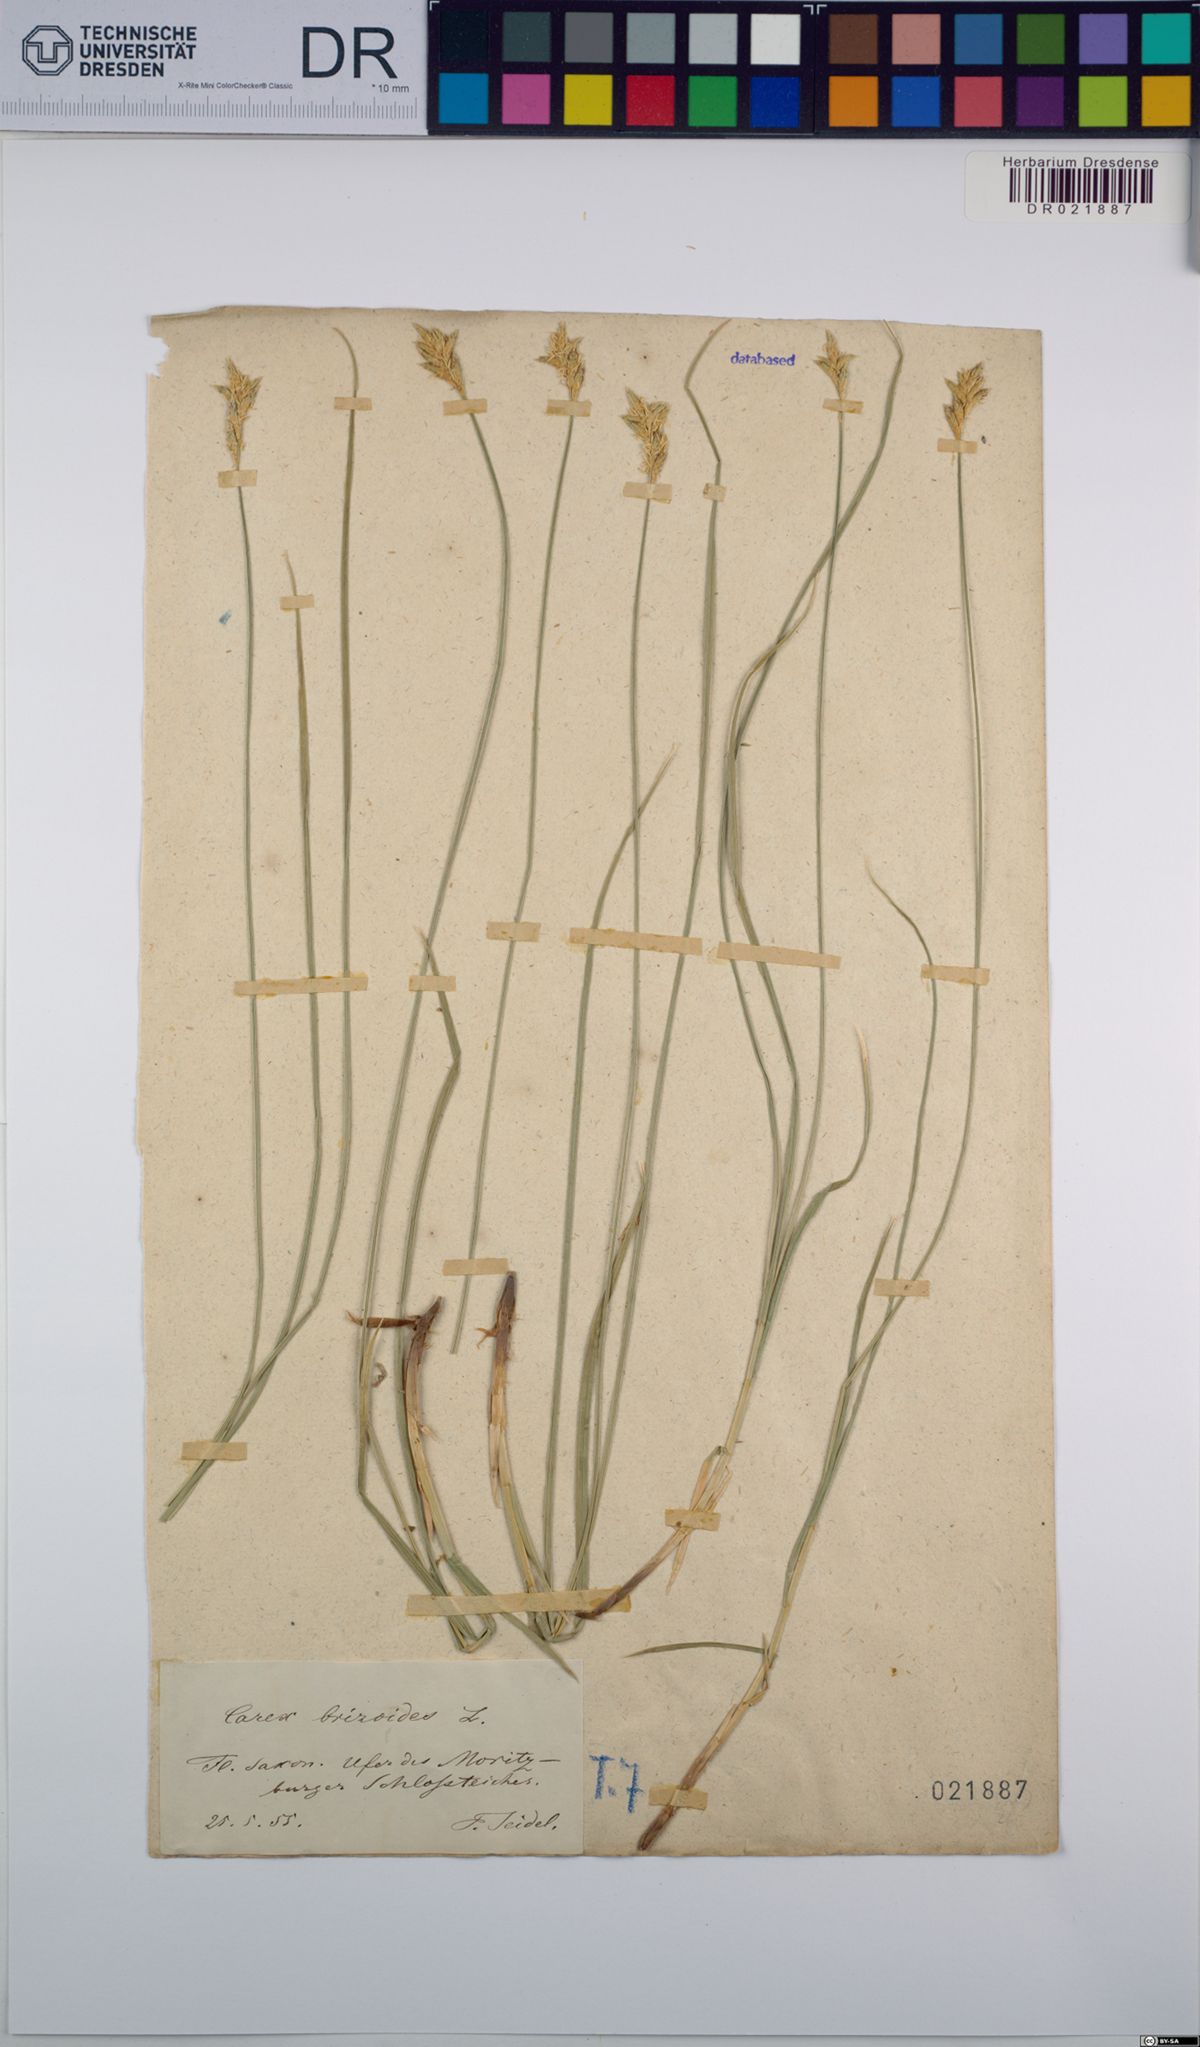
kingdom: Plantae
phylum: Tracheophyta
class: Liliopsida
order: Poales
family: Cyperaceae
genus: Carex
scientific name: Carex brizoides
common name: Quaking-grass sedge
